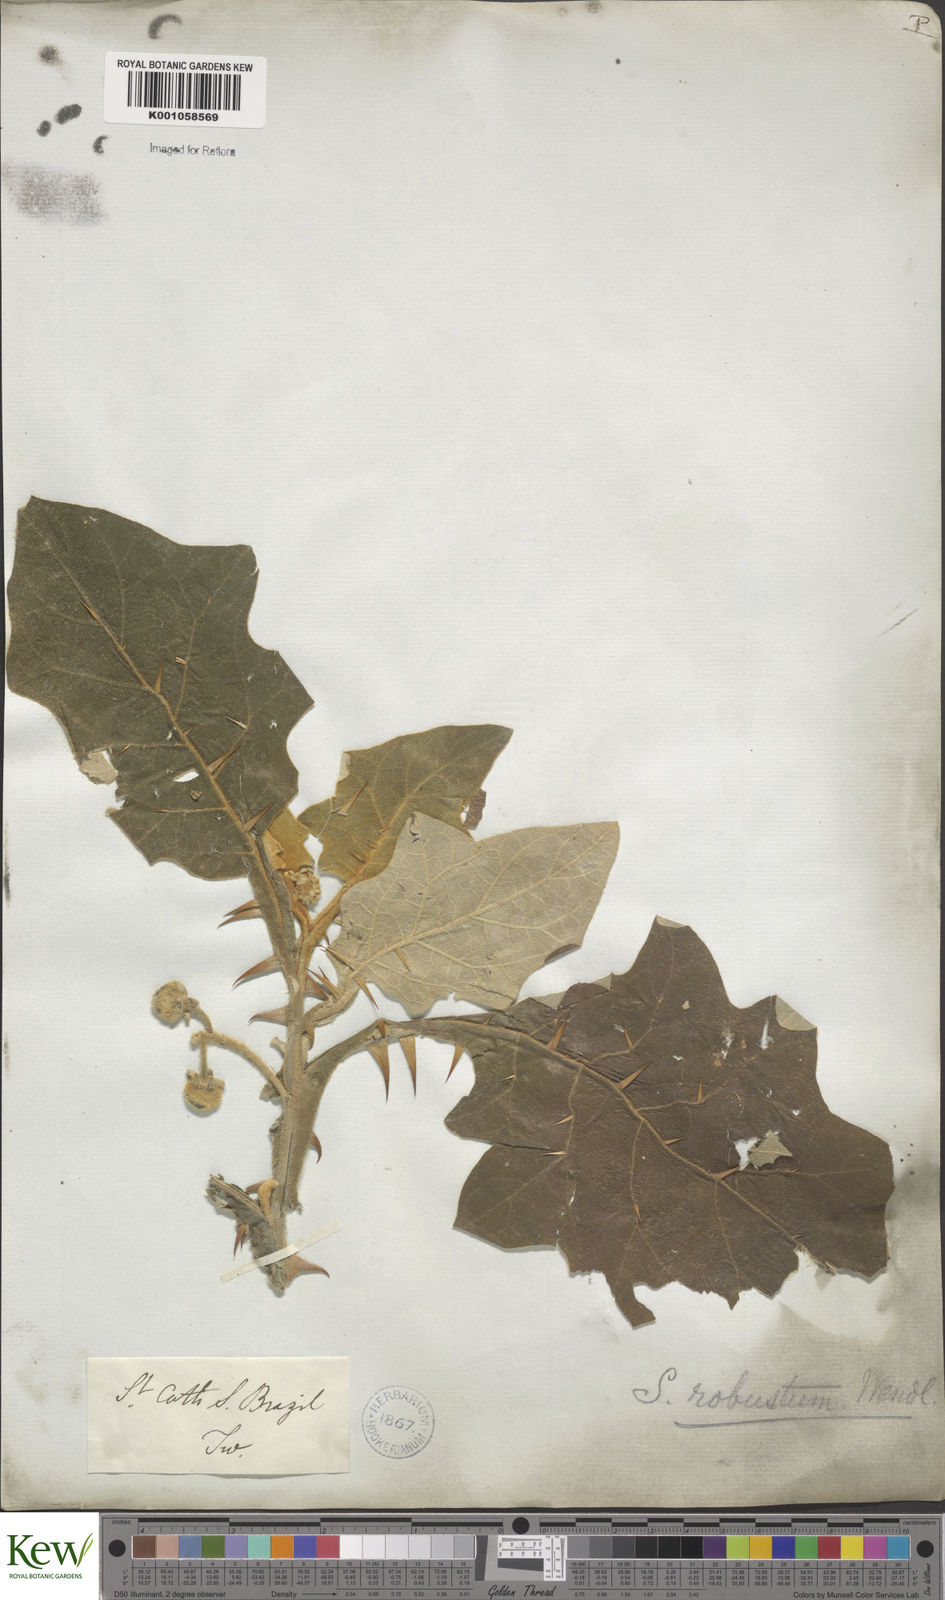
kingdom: Plantae
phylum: Tracheophyta
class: Magnoliopsida
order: Solanales
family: Solanaceae
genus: Solanum
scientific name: Solanum robustum
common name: Shrubby nightshade
